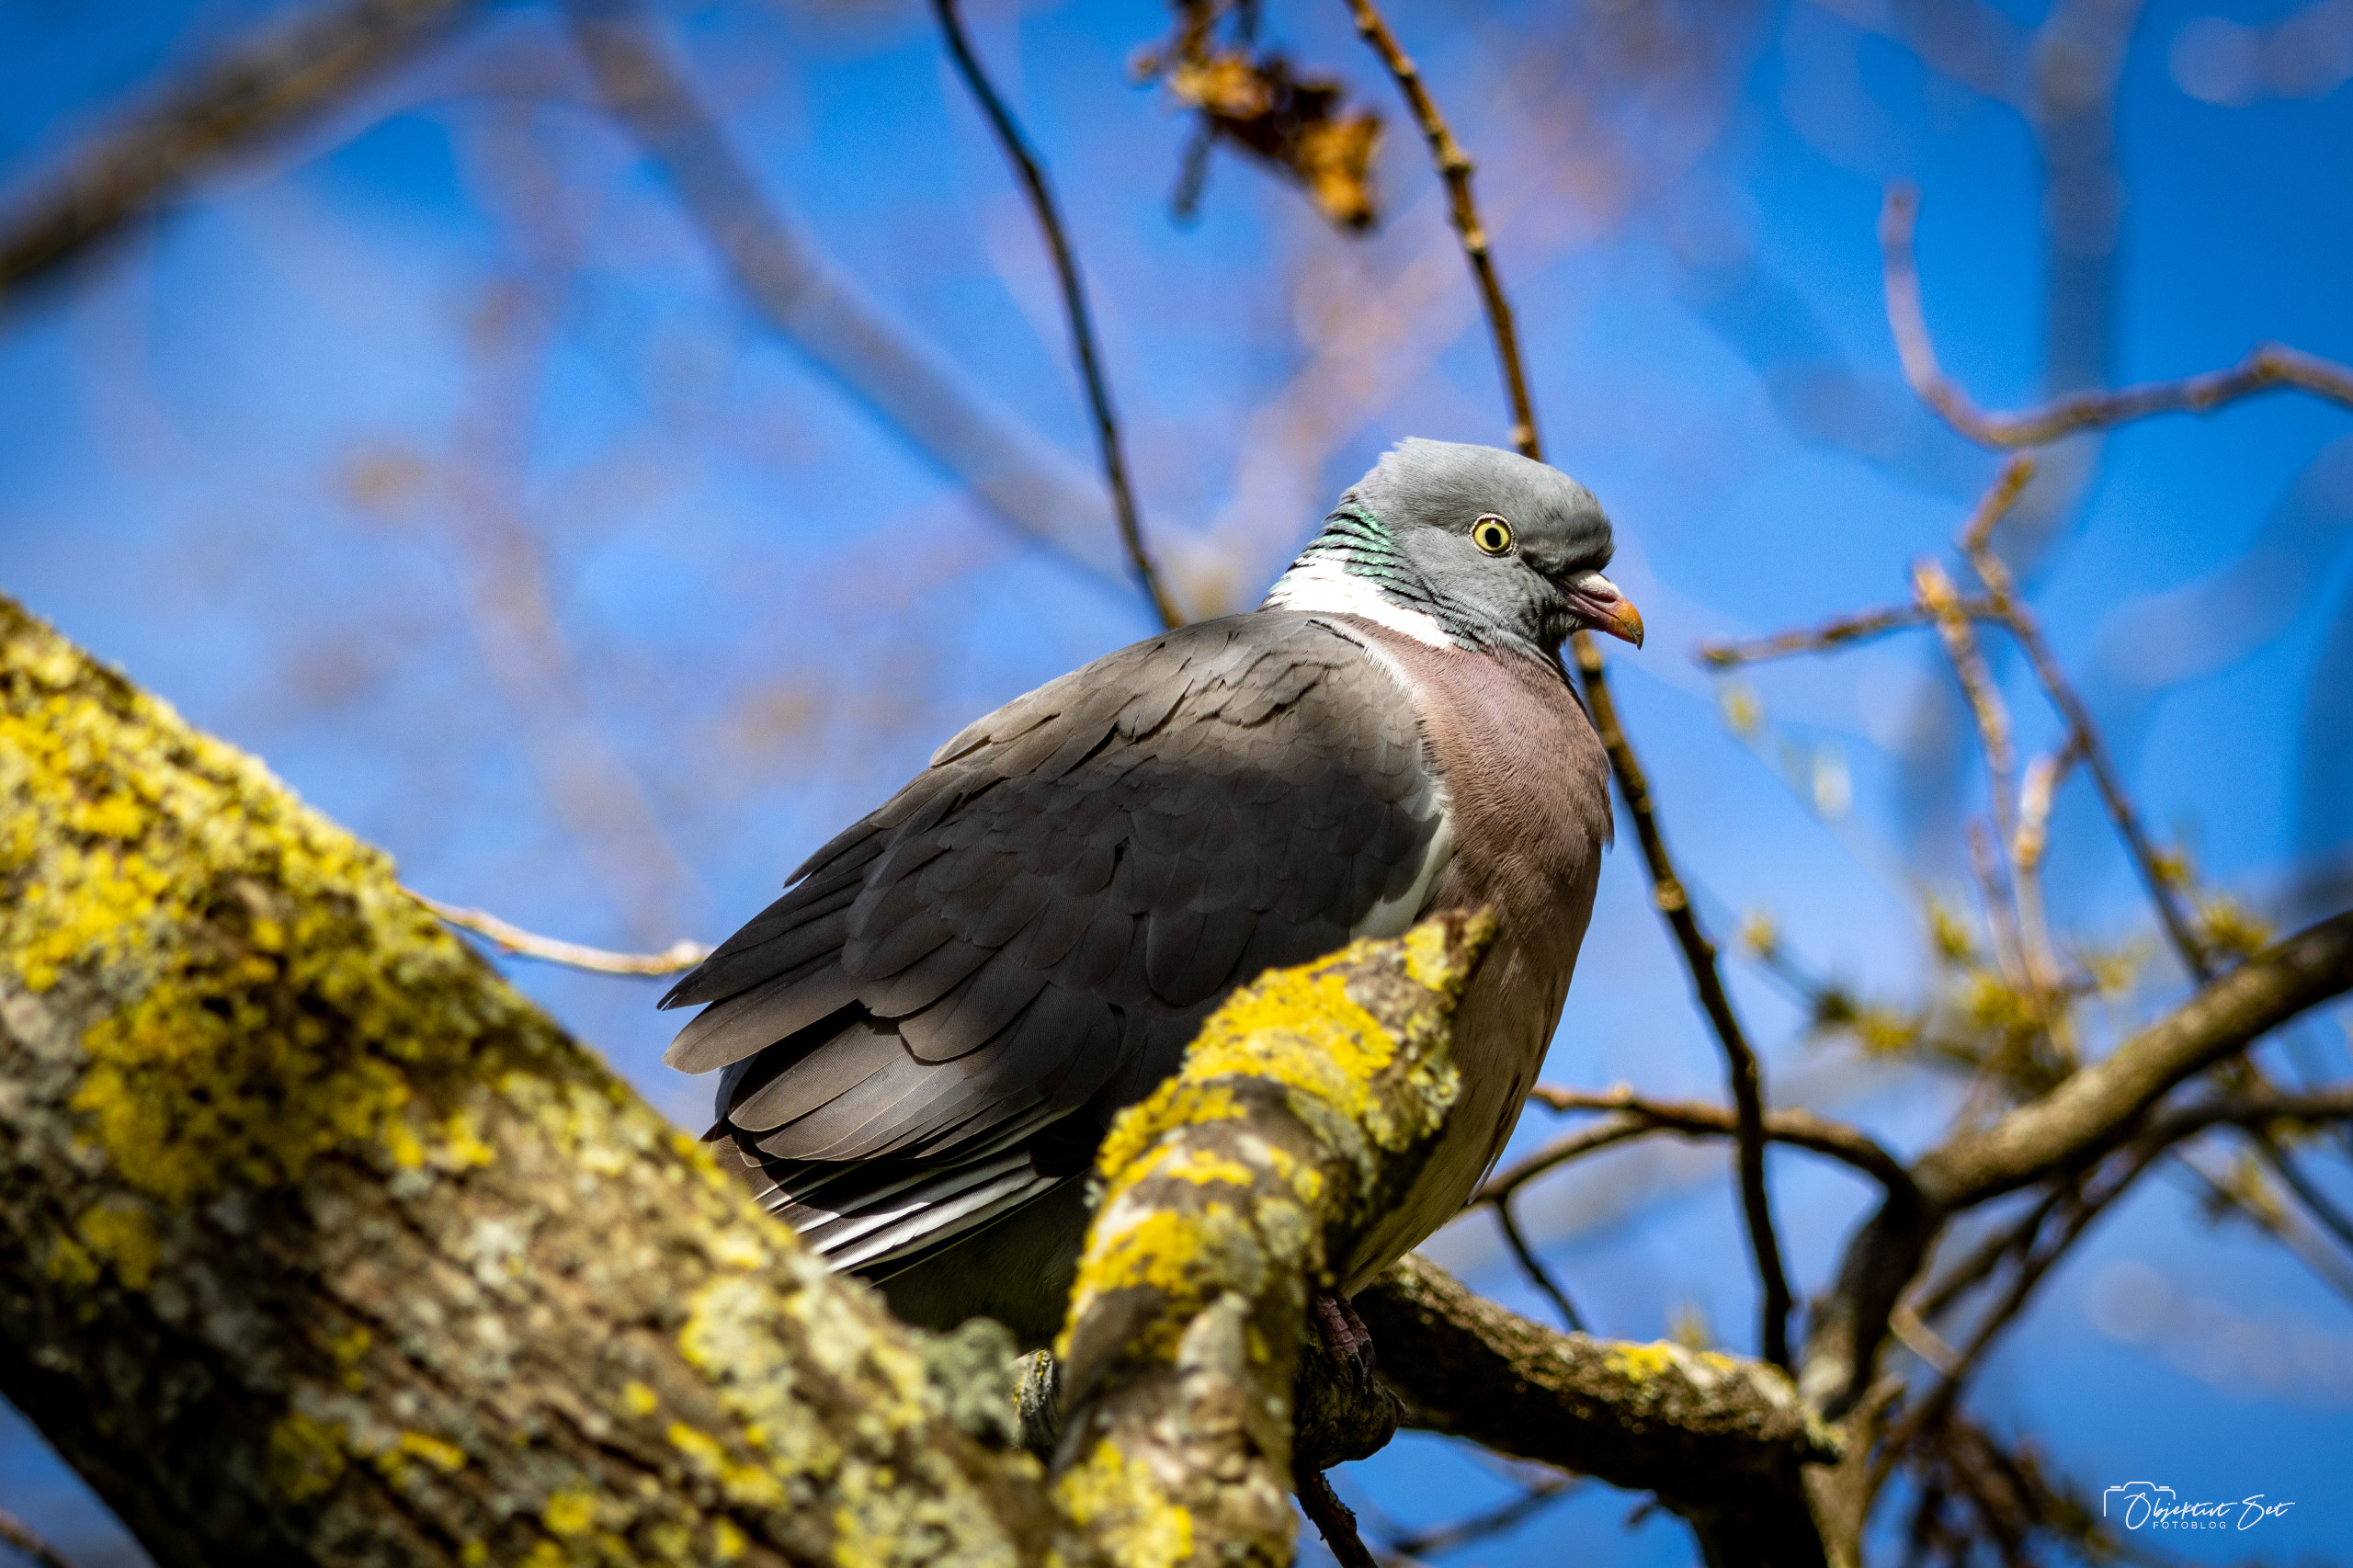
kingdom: Animalia
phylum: Chordata
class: Aves
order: Columbiformes
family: Columbidae
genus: Columba
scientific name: Columba palumbus
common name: Ringdue
